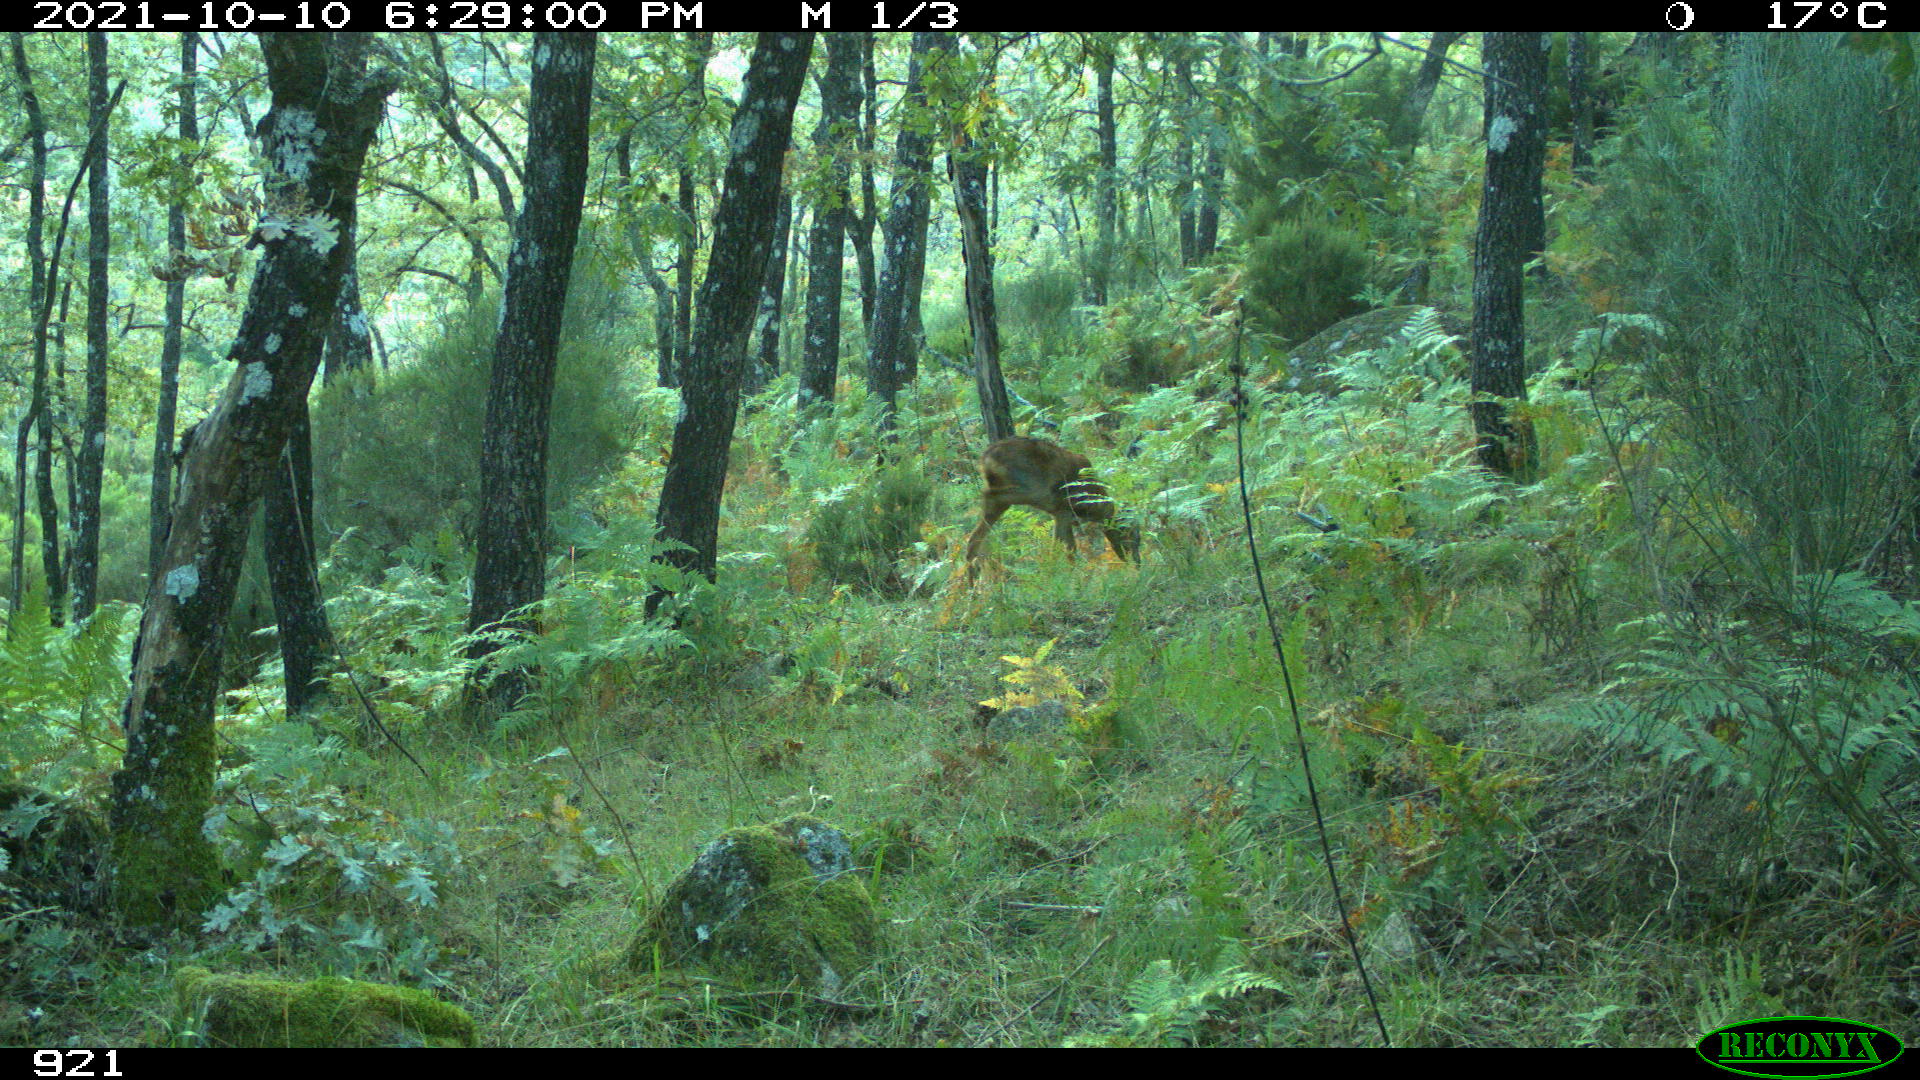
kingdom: Animalia
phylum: Chordata
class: Mammalia
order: Artiodactyla
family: Cervidae
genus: Capreolus
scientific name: Capreolus capreolus
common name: Western roe deer
